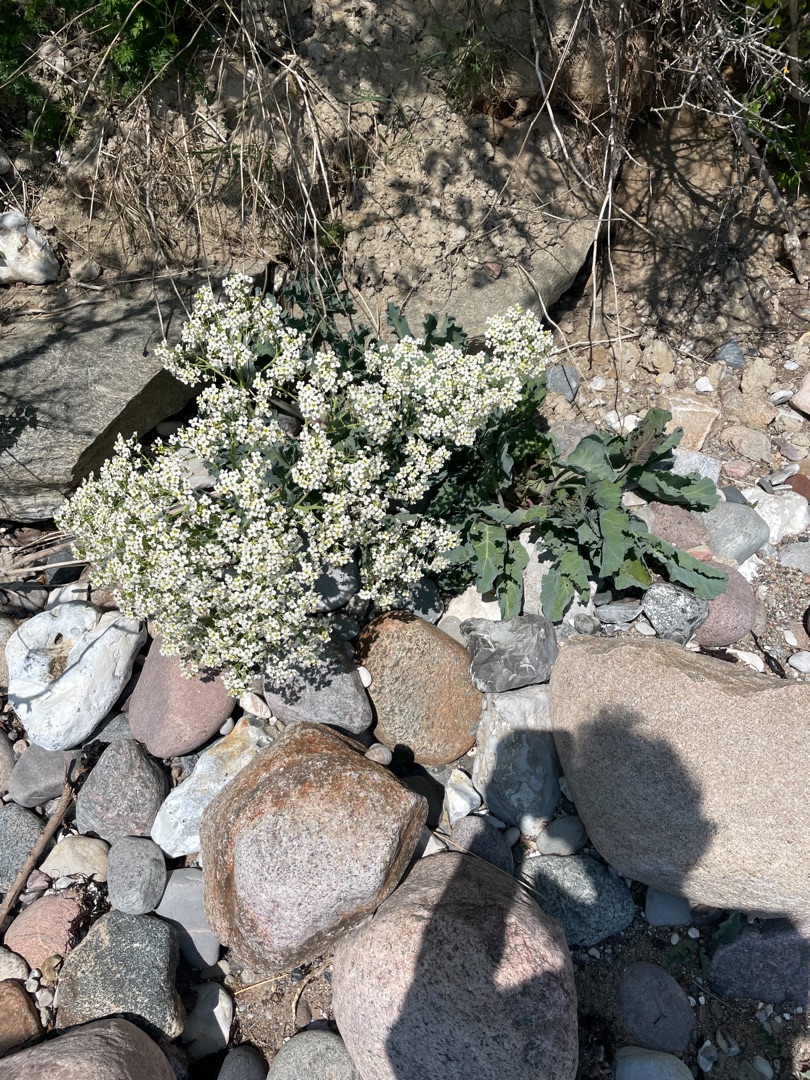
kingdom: Plantae
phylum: Tracheophyta
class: Magnoliopsida
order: Brassicales
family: Brassicaceae
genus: Crambe
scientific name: Crambe maritima
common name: Strandkål
